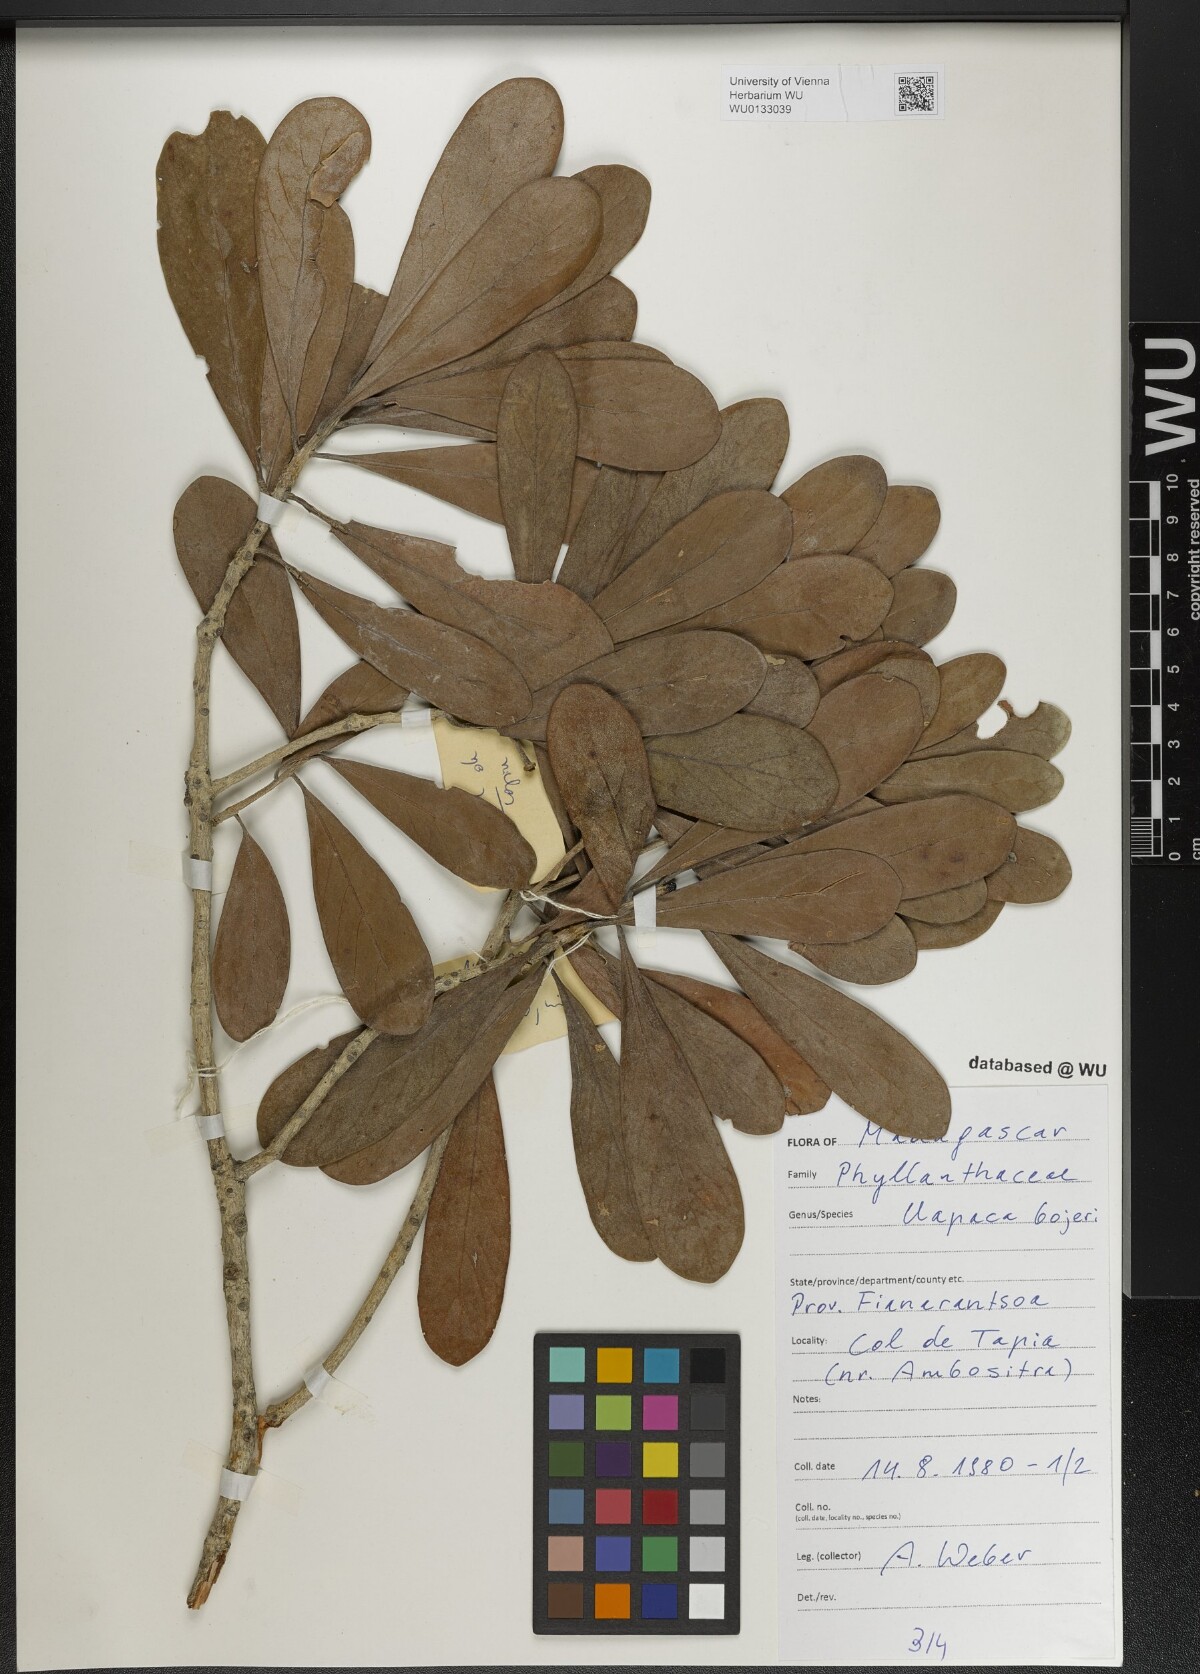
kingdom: Plantae
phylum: Tracheophyta
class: Magnoliopsida
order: Malpighiales
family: Phyllanthaceae
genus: Uapaca
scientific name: Uapaca bojeri
